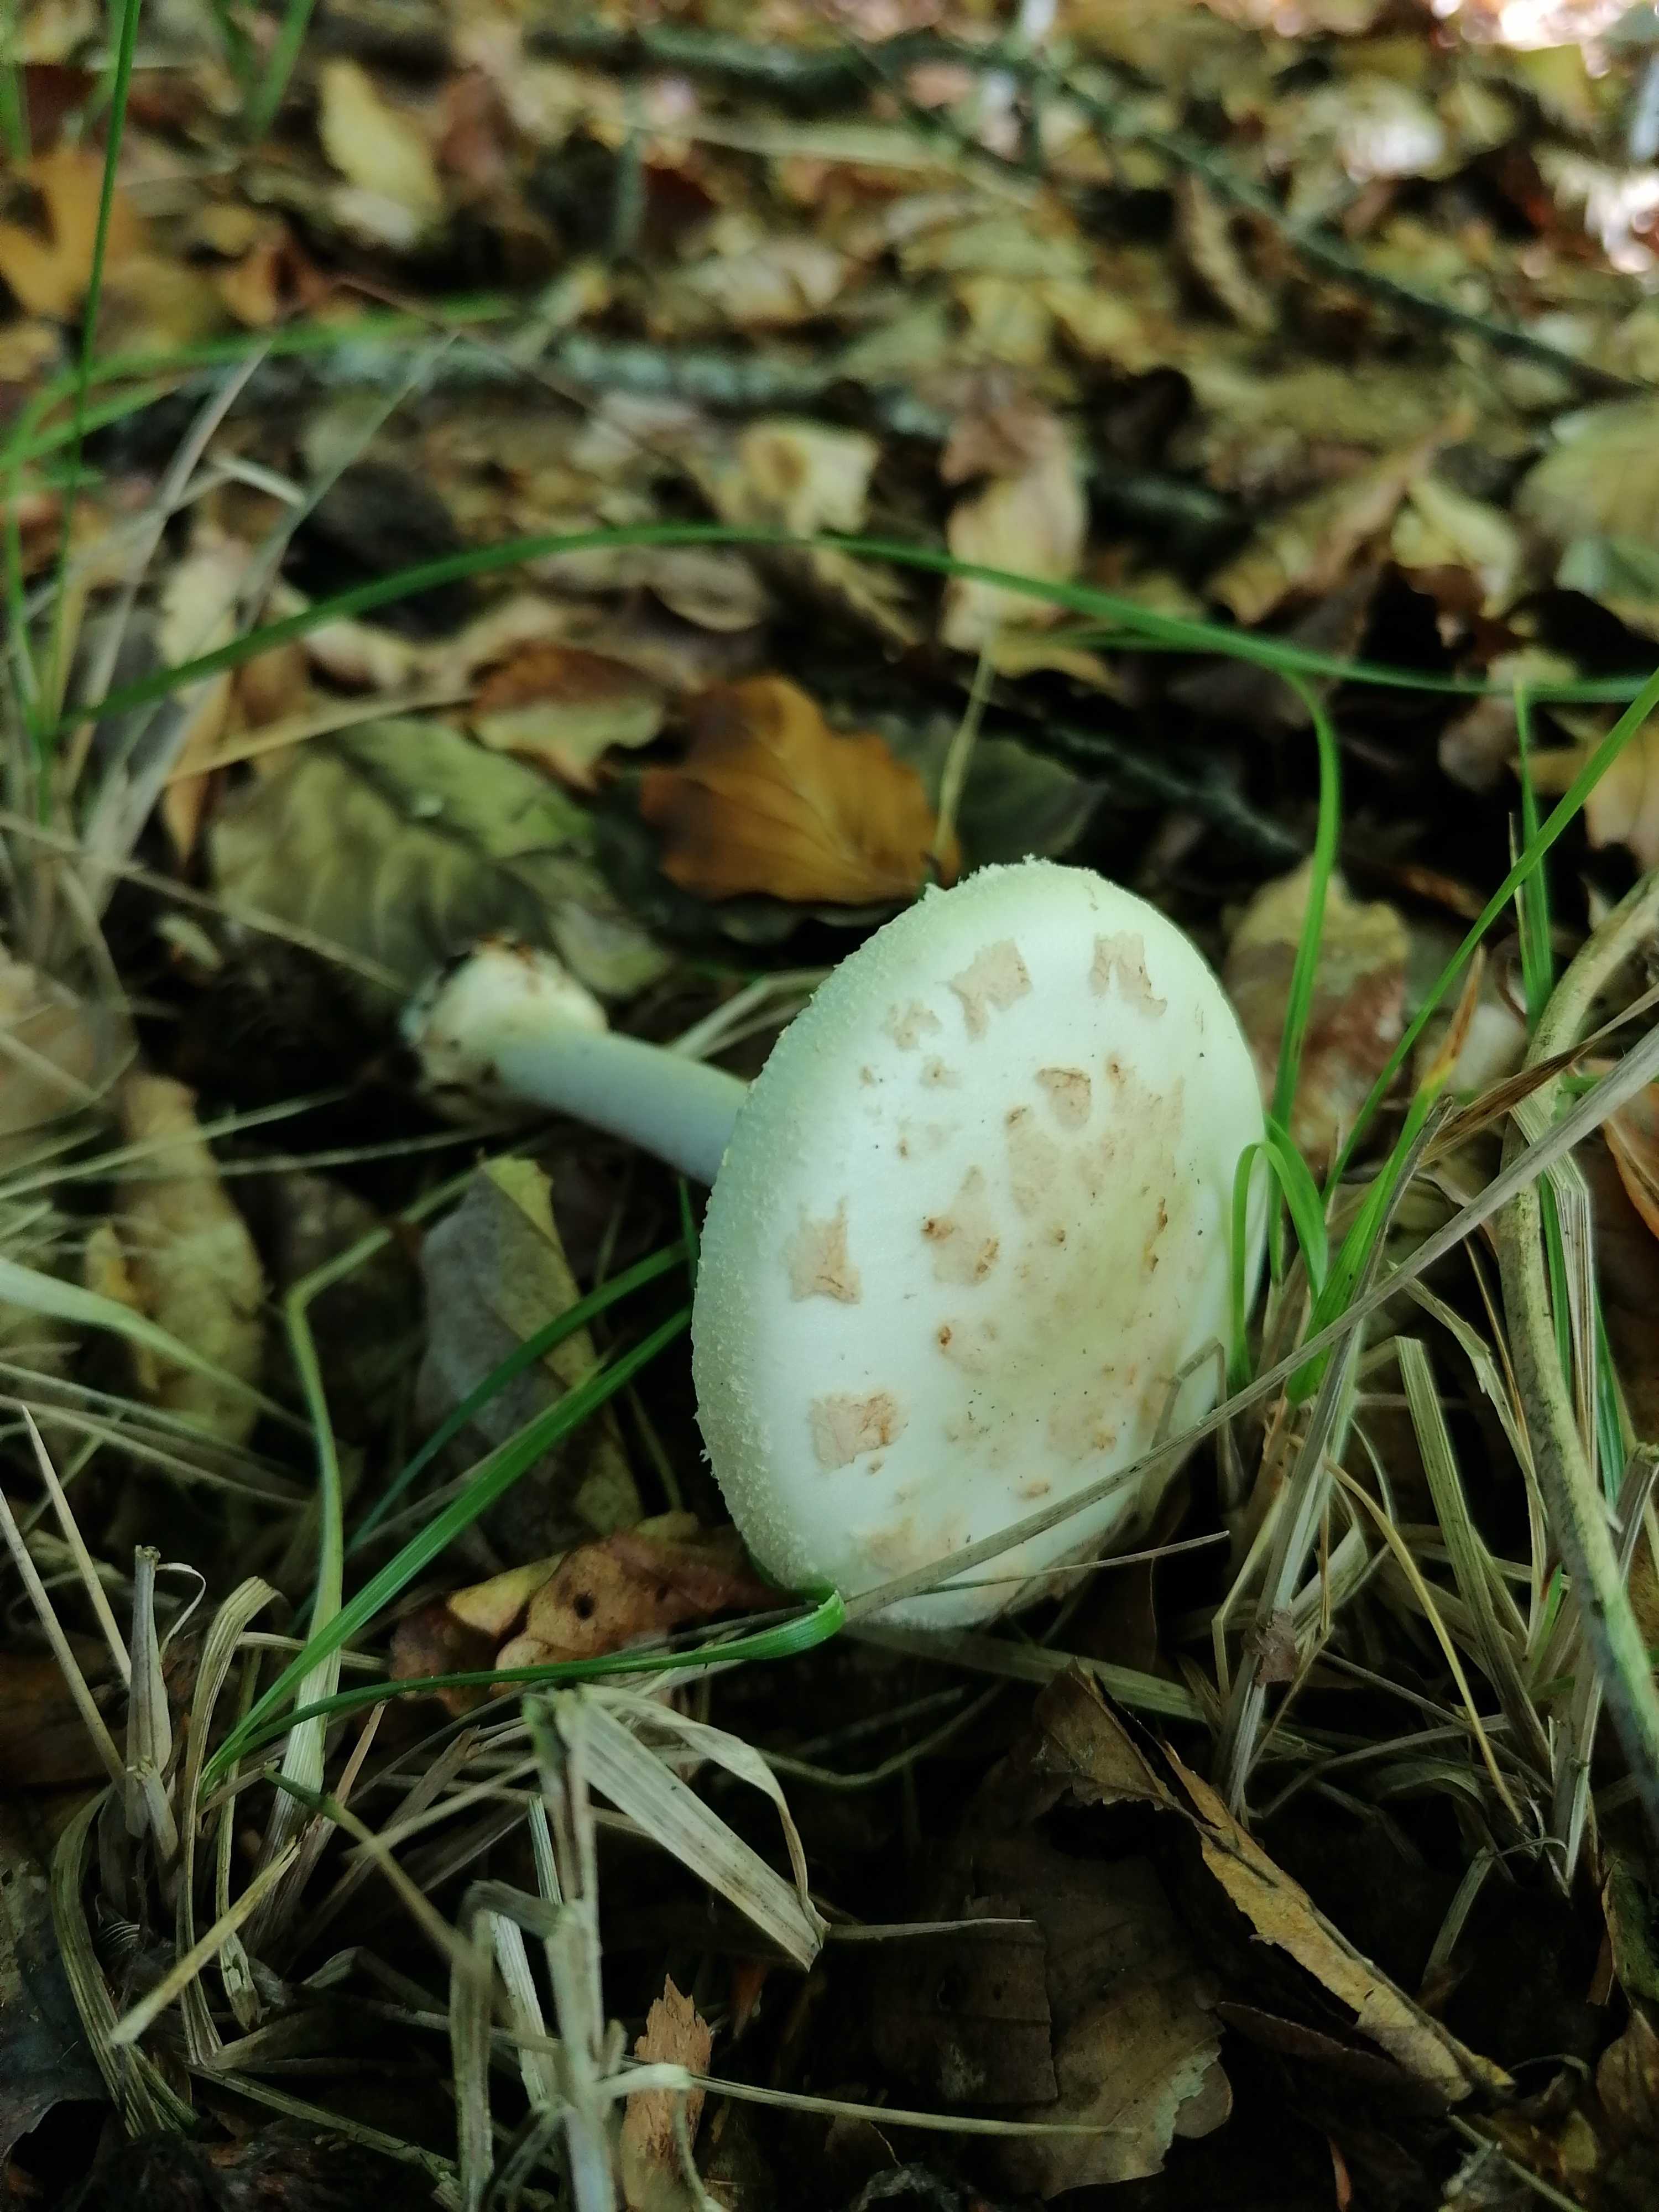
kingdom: Fungi
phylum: Basidiomycota
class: Agaricomycetes
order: Agaricales
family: Amanitaceae
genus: Amanita
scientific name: Amanita citrina
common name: kugleknoldet fluesvamp
